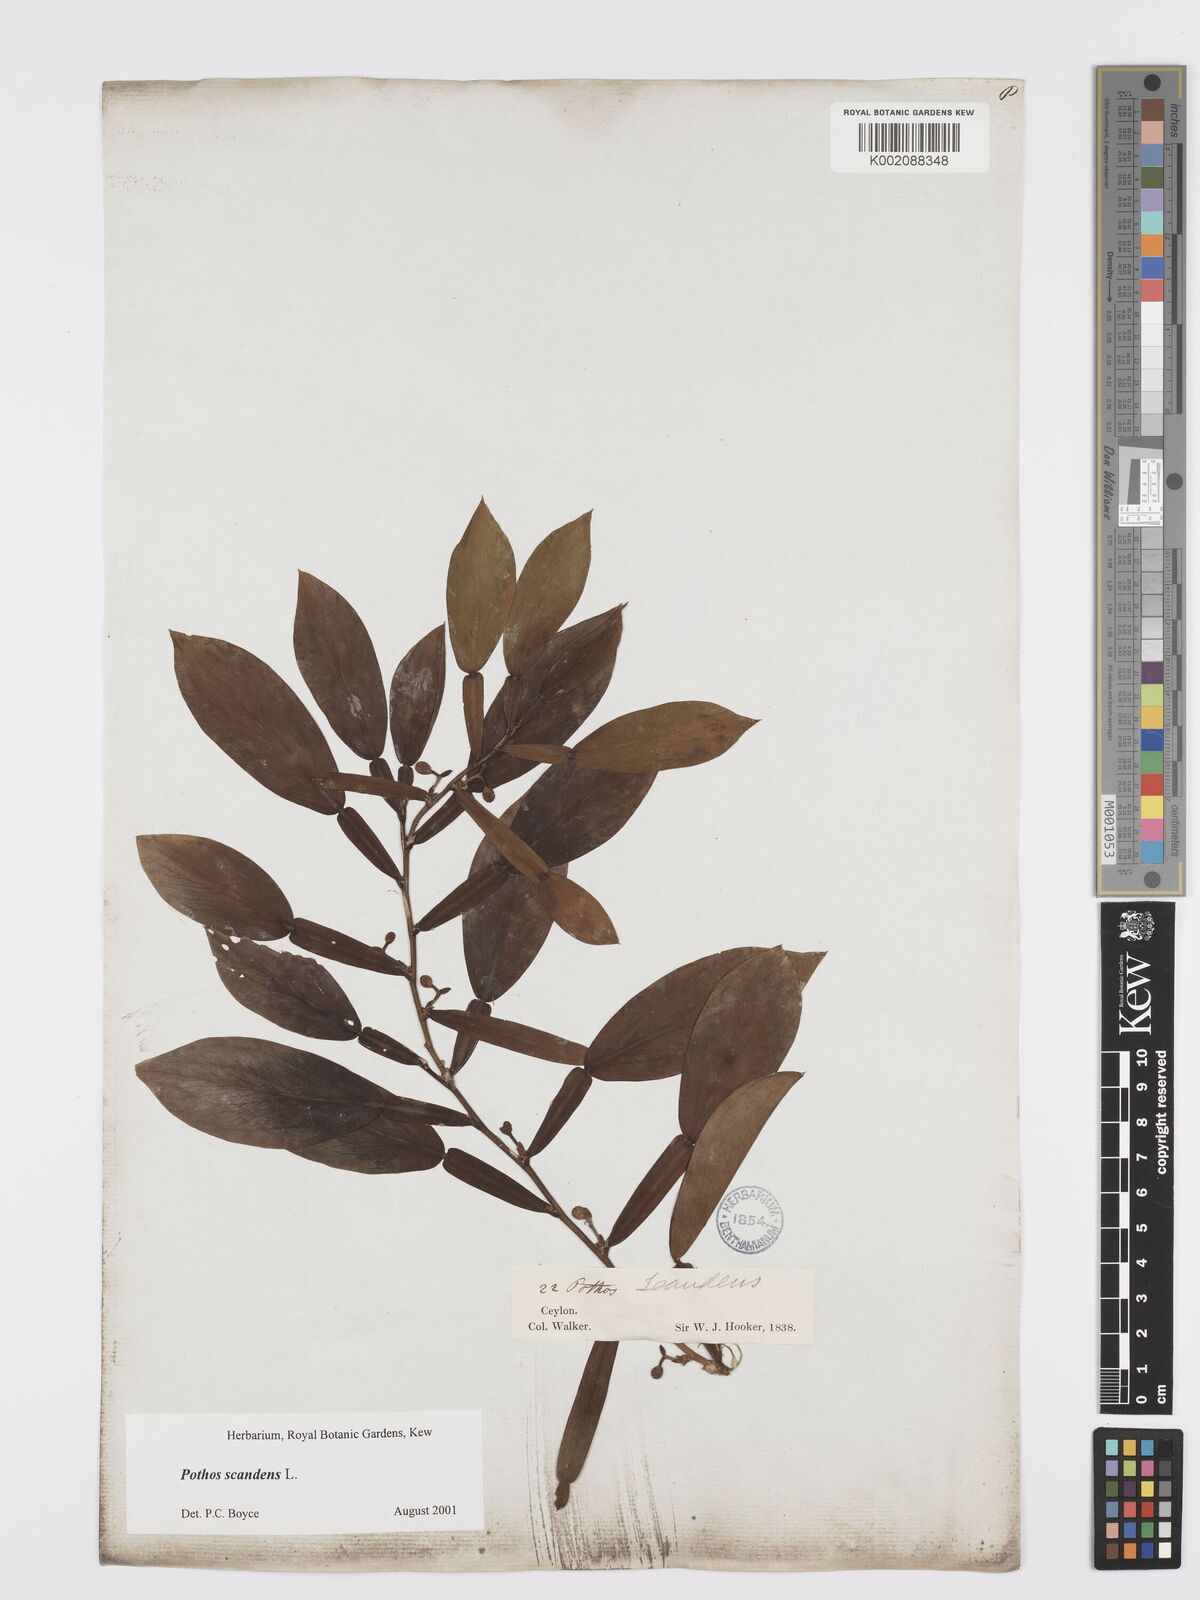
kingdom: Plantae
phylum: Tracheophyta
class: Liliopsida
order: Alismatales
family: Araceae
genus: Pothos
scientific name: Pothos scandens
